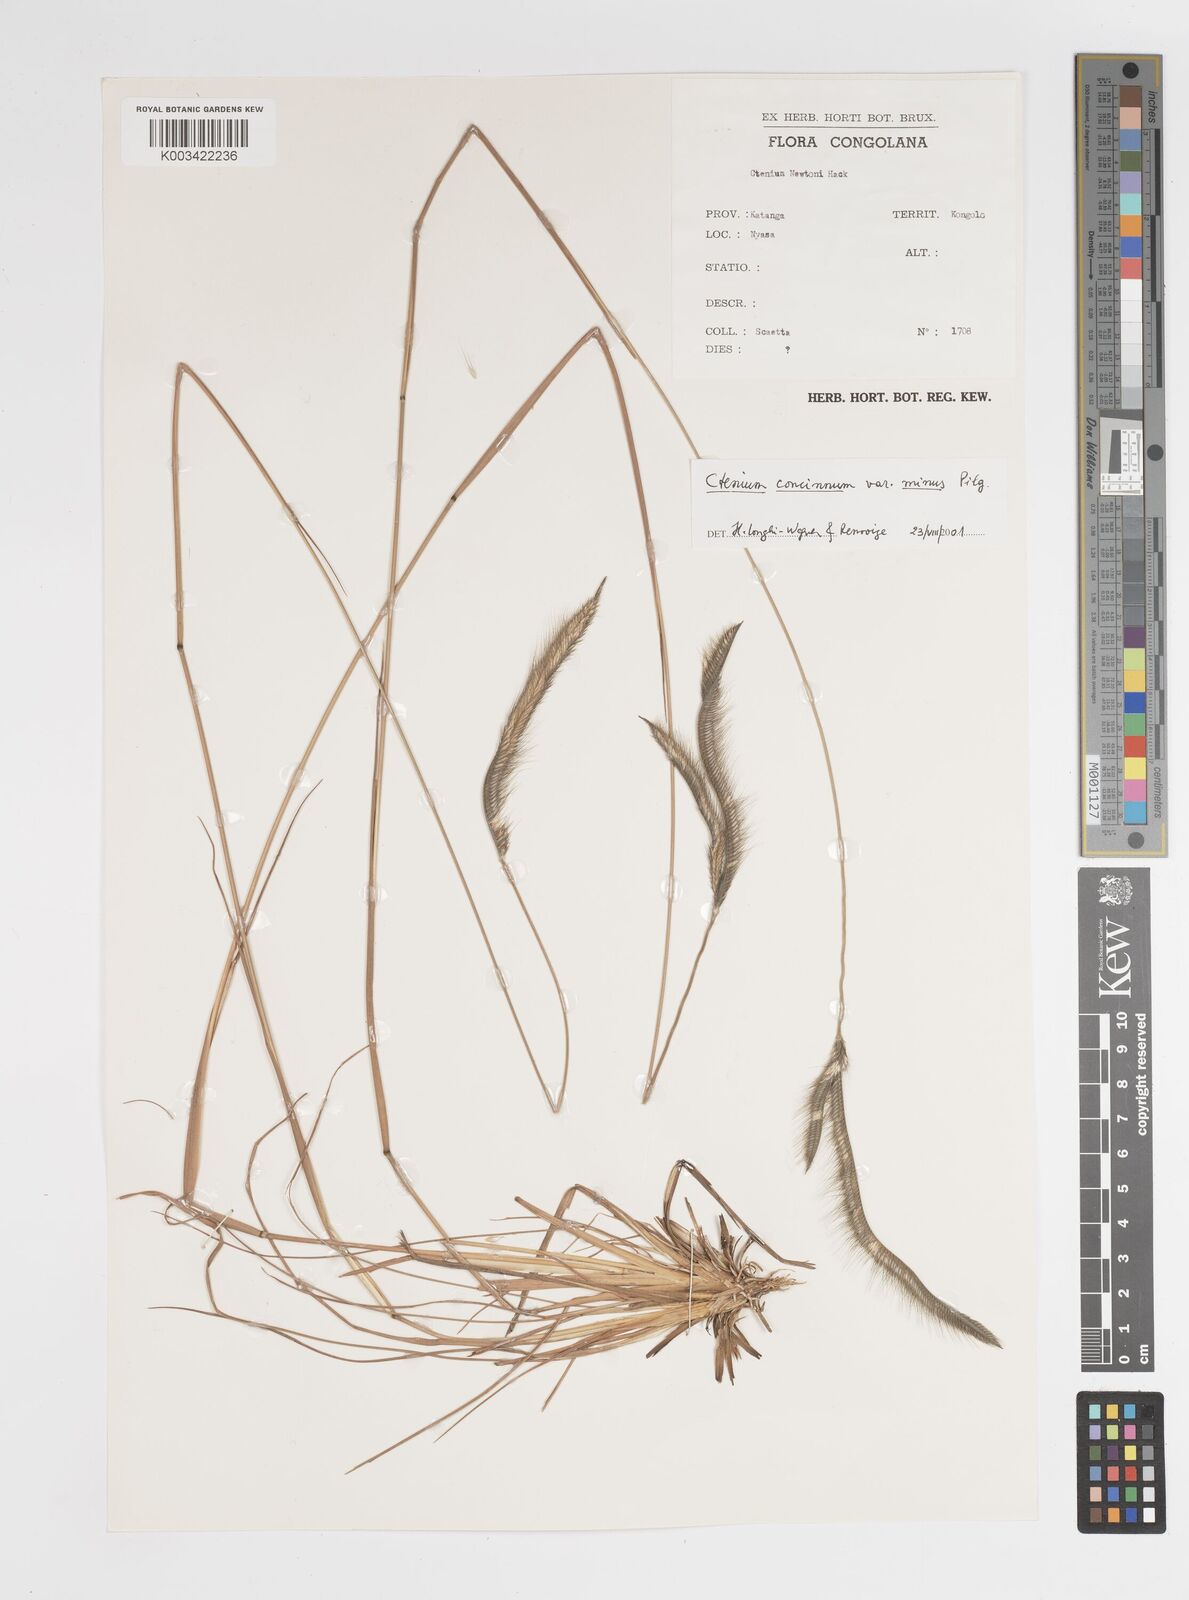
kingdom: Plantae
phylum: Tracheophyta
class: Liliopsida
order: Poales
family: Poaceae
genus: Ctenium
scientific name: Ctenium concinnum
